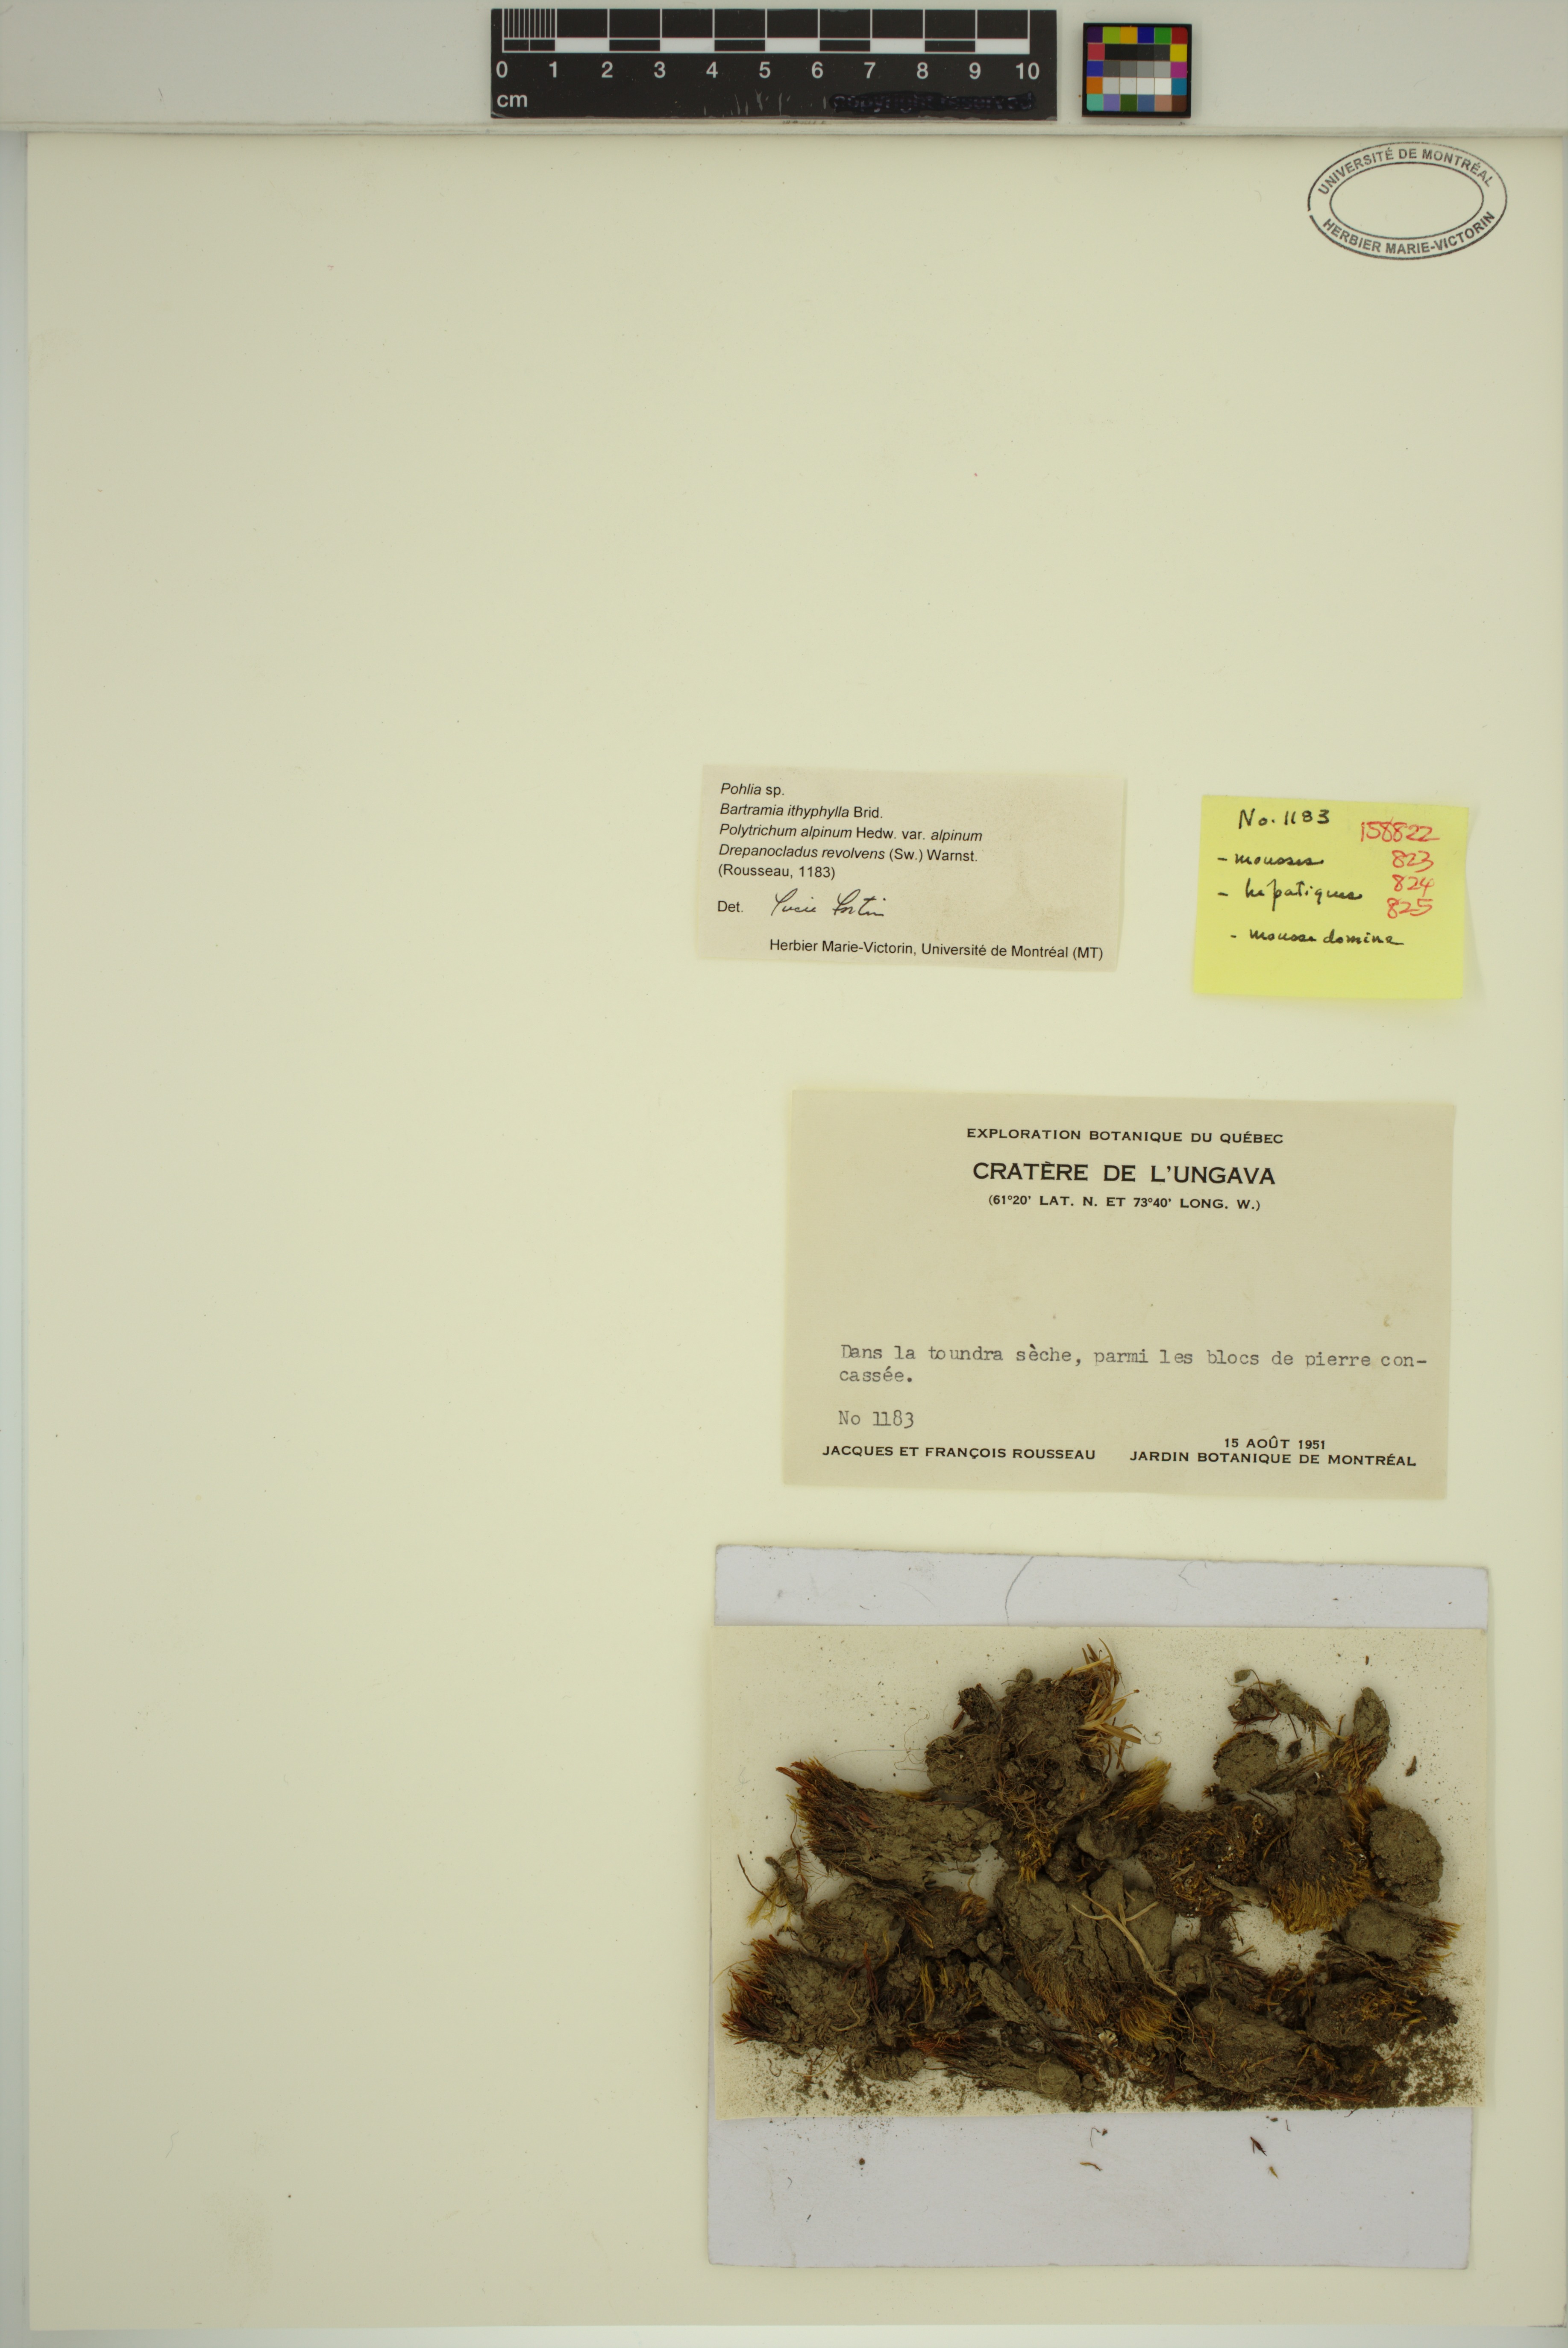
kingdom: Plantae
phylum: Bryophyta
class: Bryopsida
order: Bryales
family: Mniaceae
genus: Pohlia
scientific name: Pohlia
